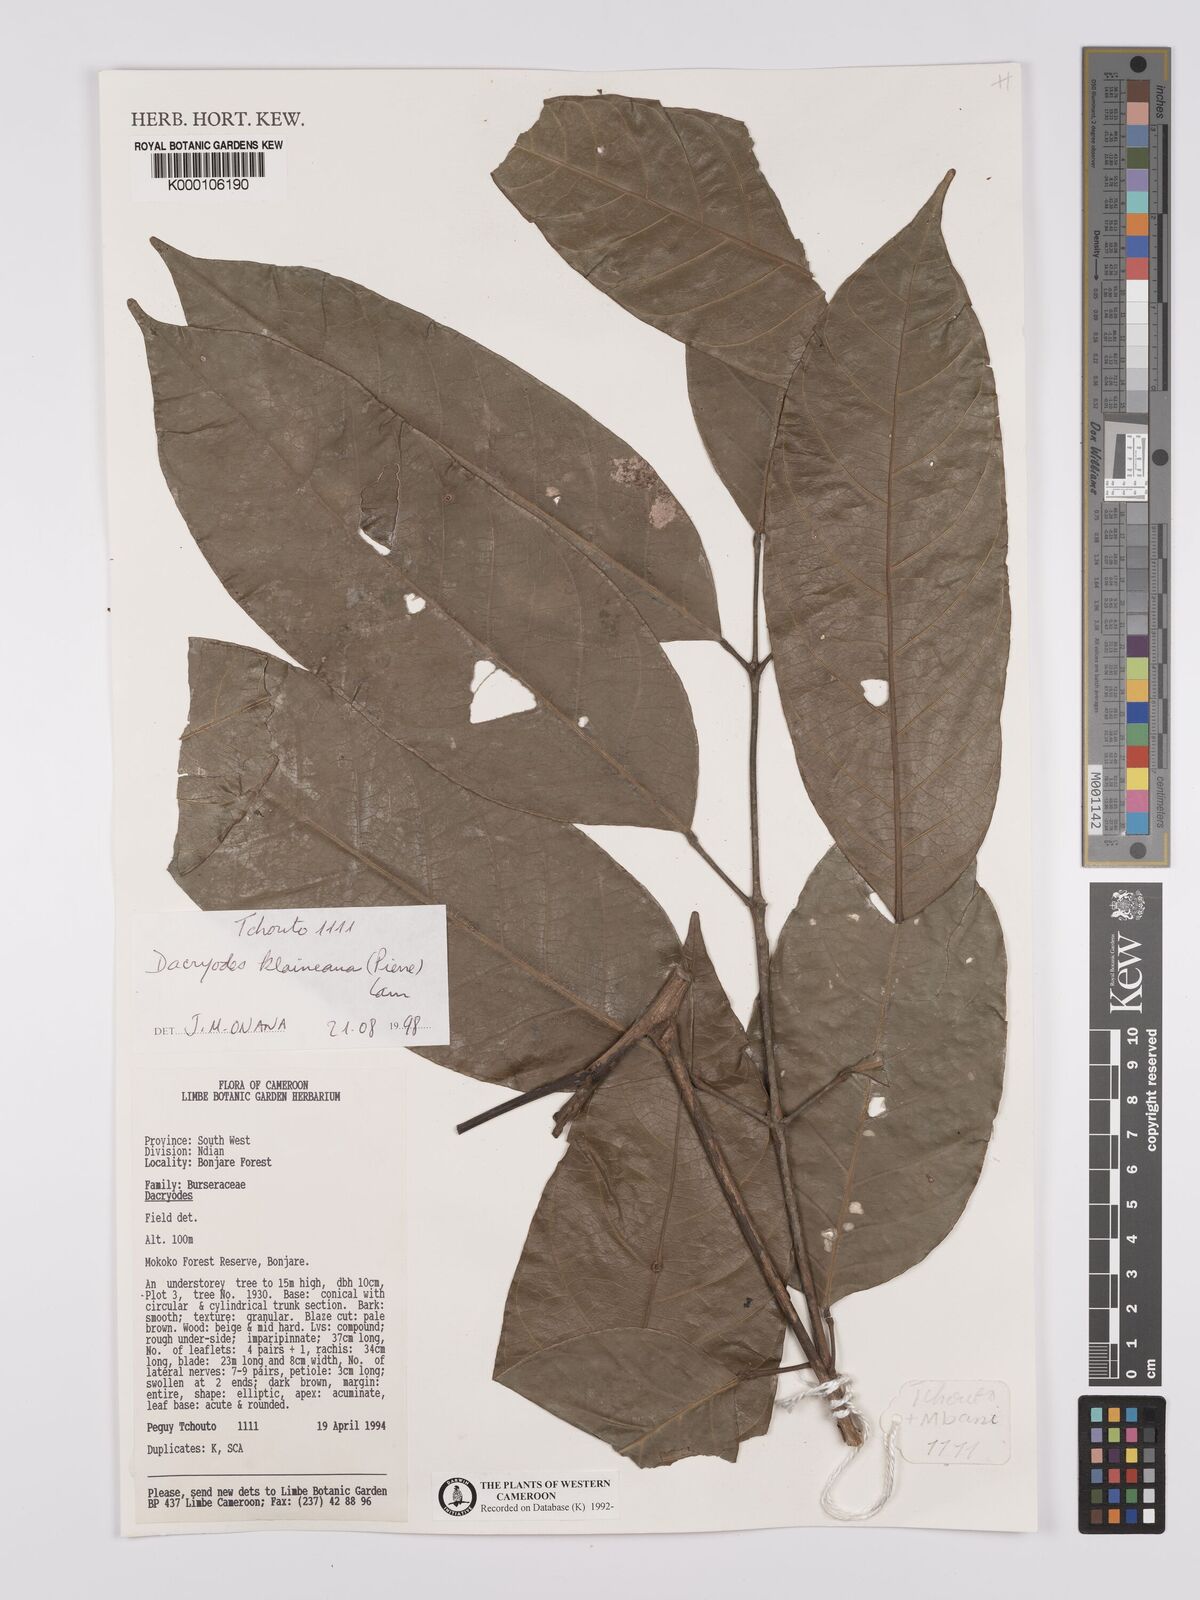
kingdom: Plantae
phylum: Tracheophyta
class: Magnoliopsida
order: Sapindales
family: Burseraceae
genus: Pachylobus
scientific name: Pachylobus klaineana
